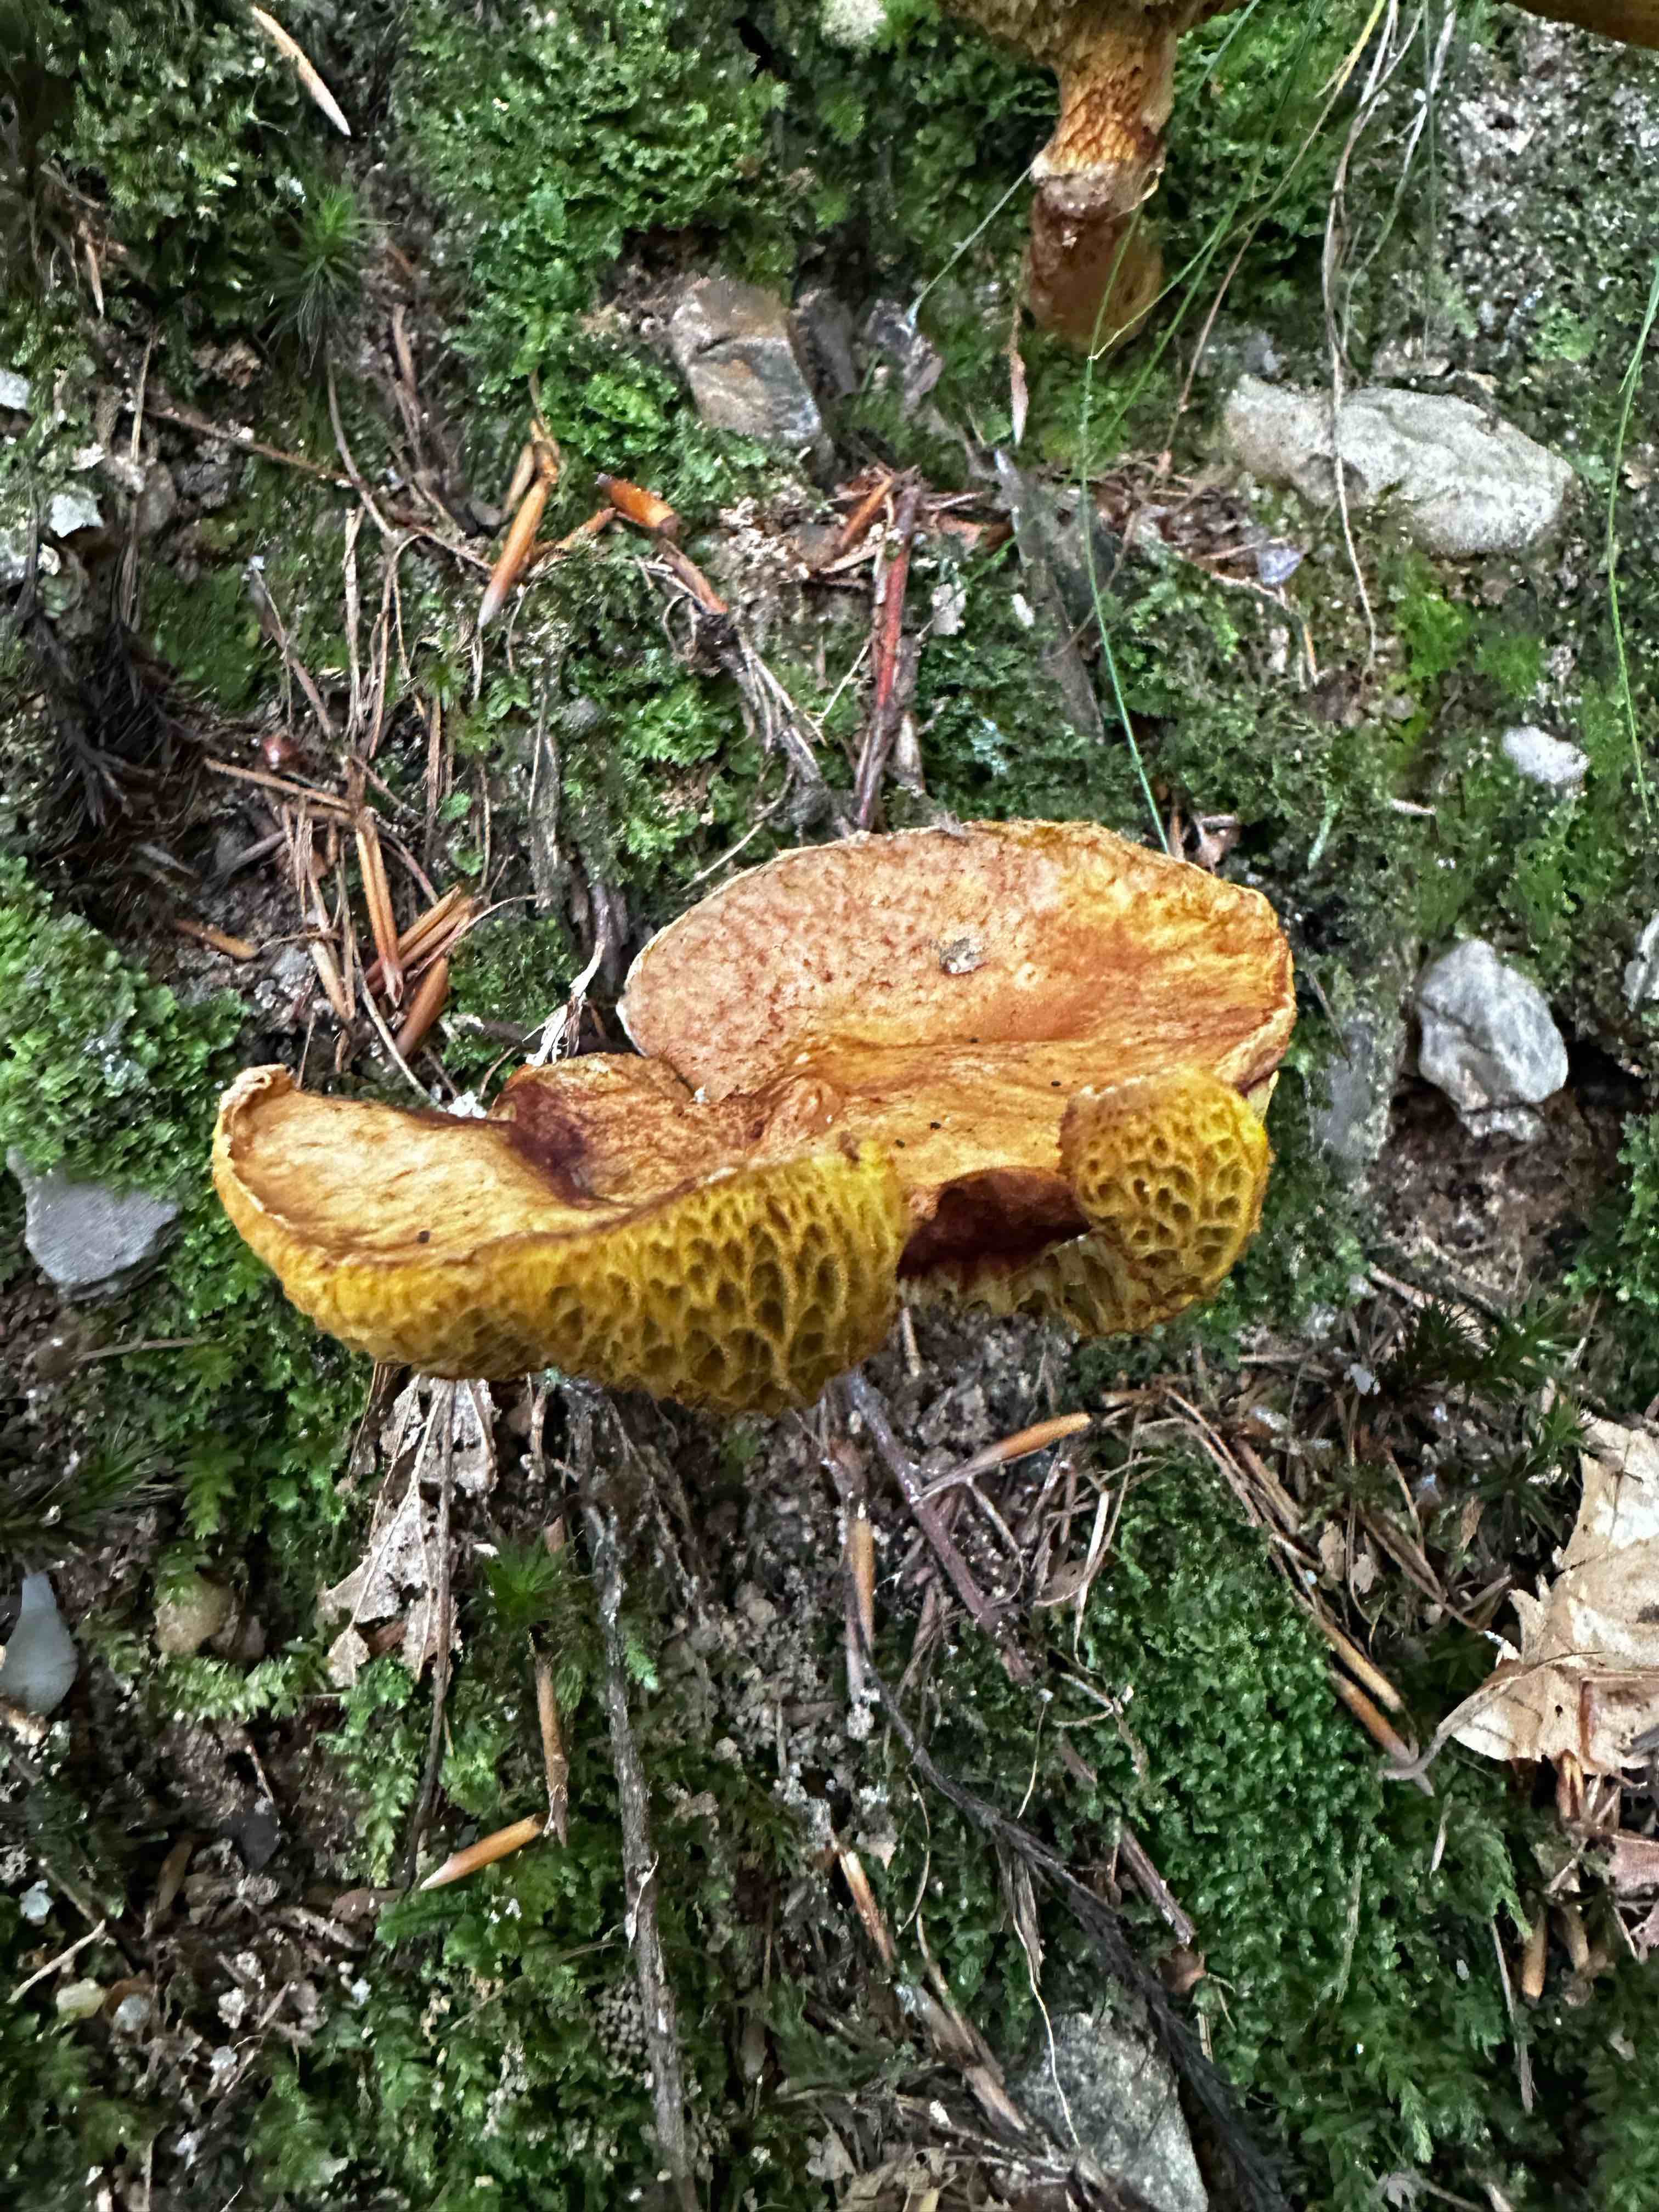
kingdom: Fungi
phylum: Basidiomycota
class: Agaricomycetes
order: Boletales
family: Suillaceae
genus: Suillus
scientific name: Suillus cavipes
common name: hulstokket slimrørhat
